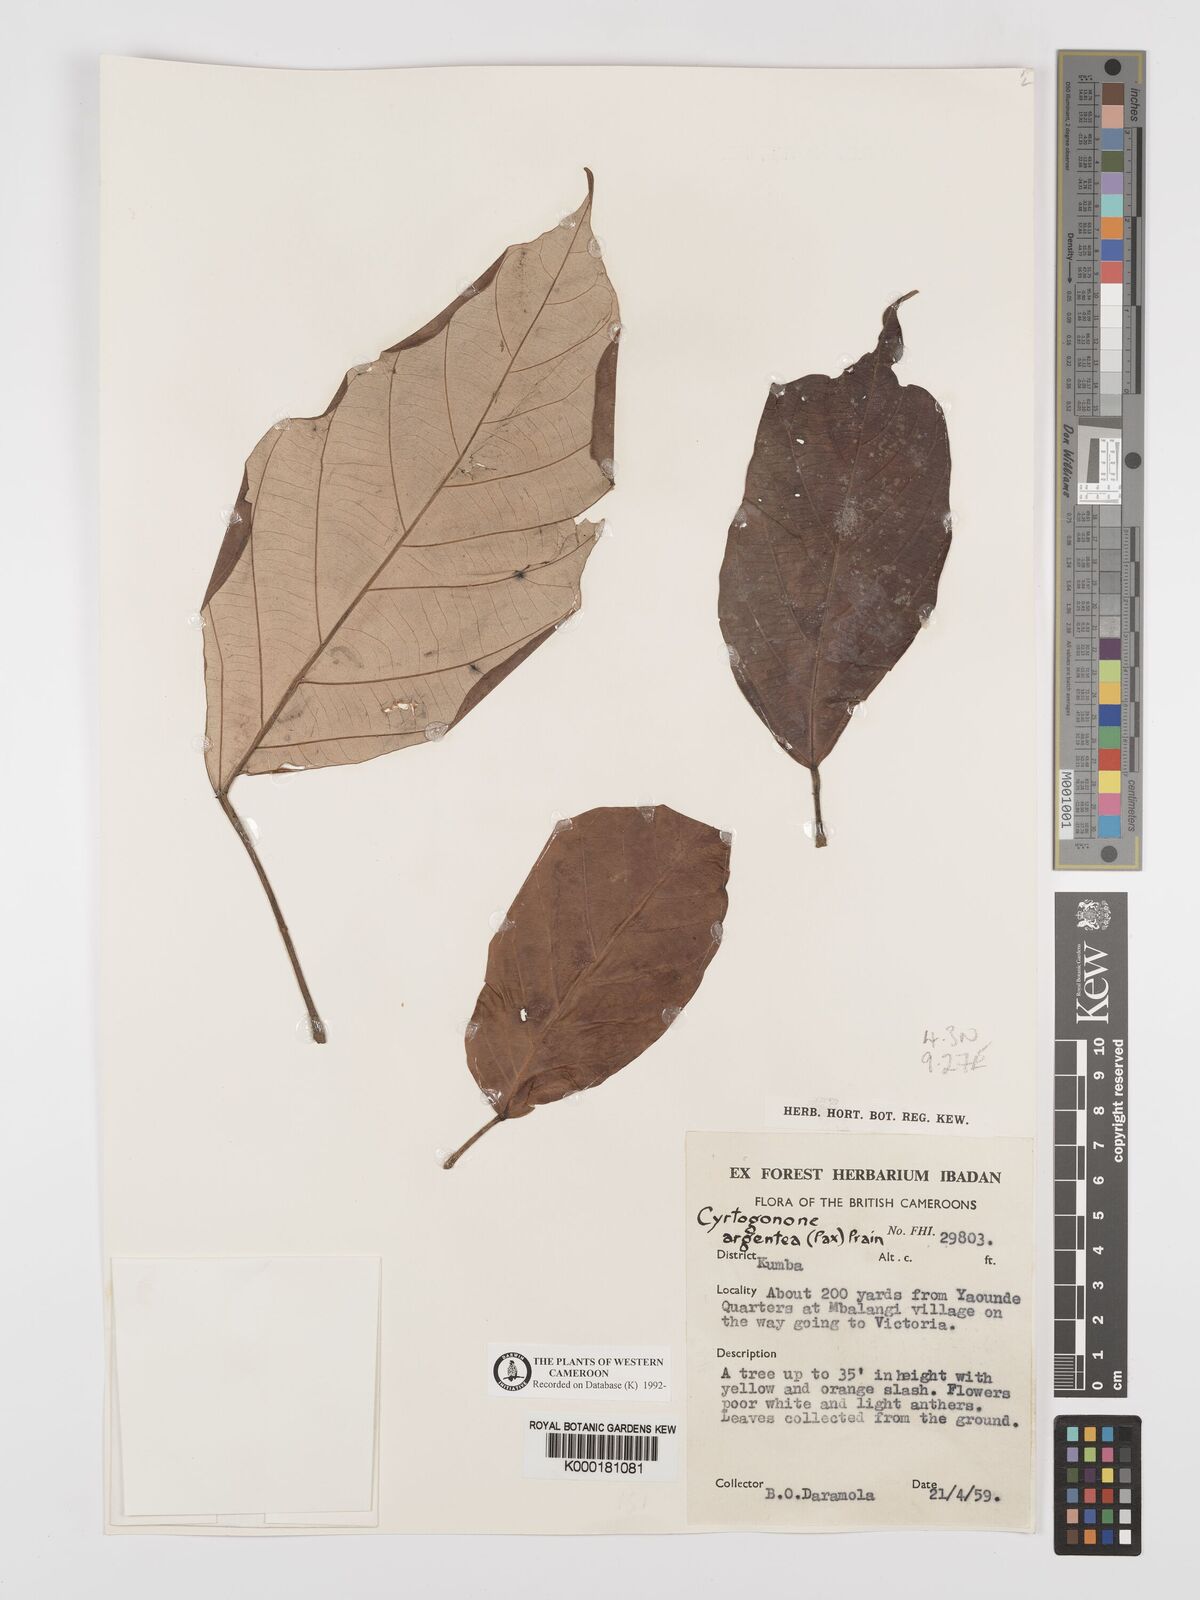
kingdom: Plantae
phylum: Tracheophyta
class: Magnoliopsida
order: Malpighiales
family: Euphorbiaceae
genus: Cyrtogonone
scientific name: Cyrtogonone argentea
